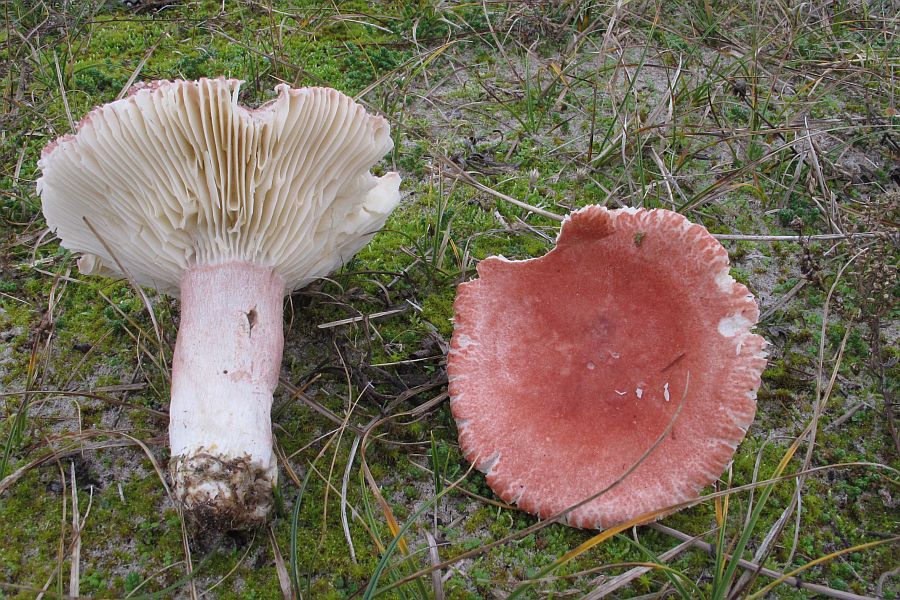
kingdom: Fungi
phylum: Basidiomycota
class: Agaricomycetes
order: Russulales
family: Russulaceae
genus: Russula
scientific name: Russula sanguinea
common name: blodrød skørhat
